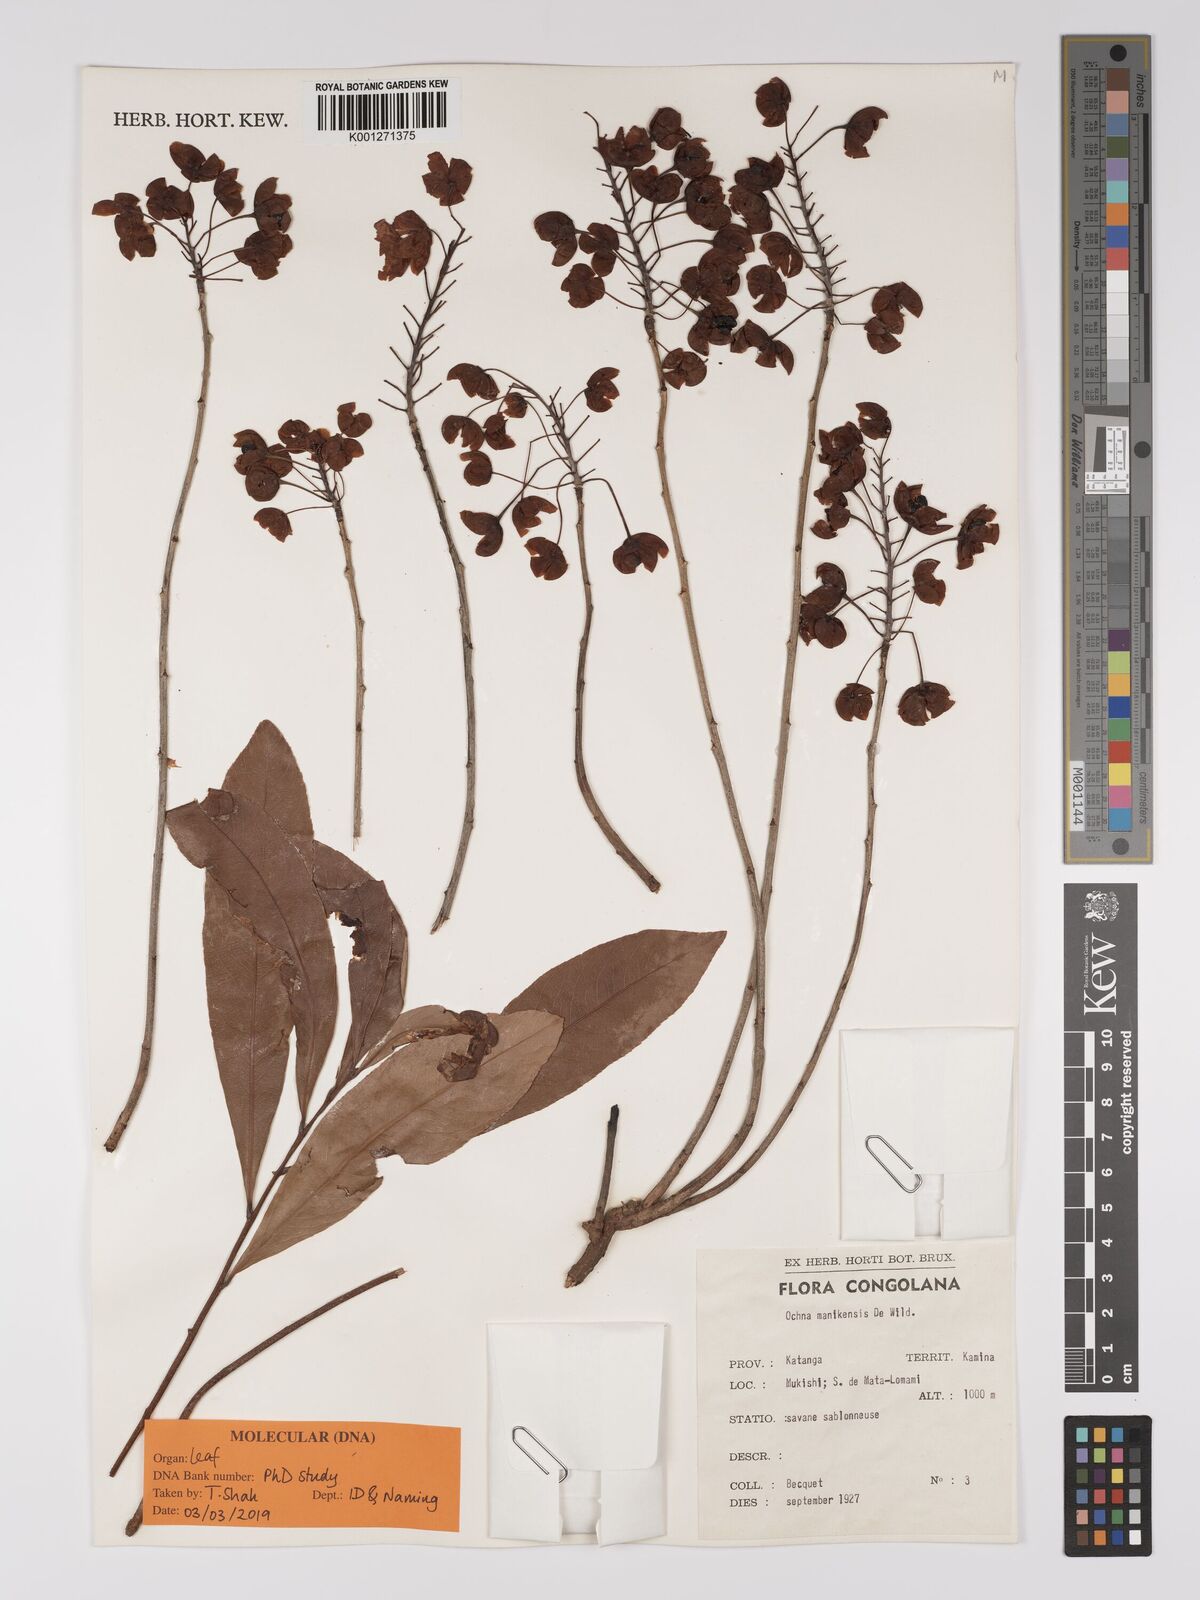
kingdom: Plantae
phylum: Tracheophyta
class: Magnoliopsida
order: Malpighiales
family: Ochnaceae
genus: Ochna
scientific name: Ochna manikensis
